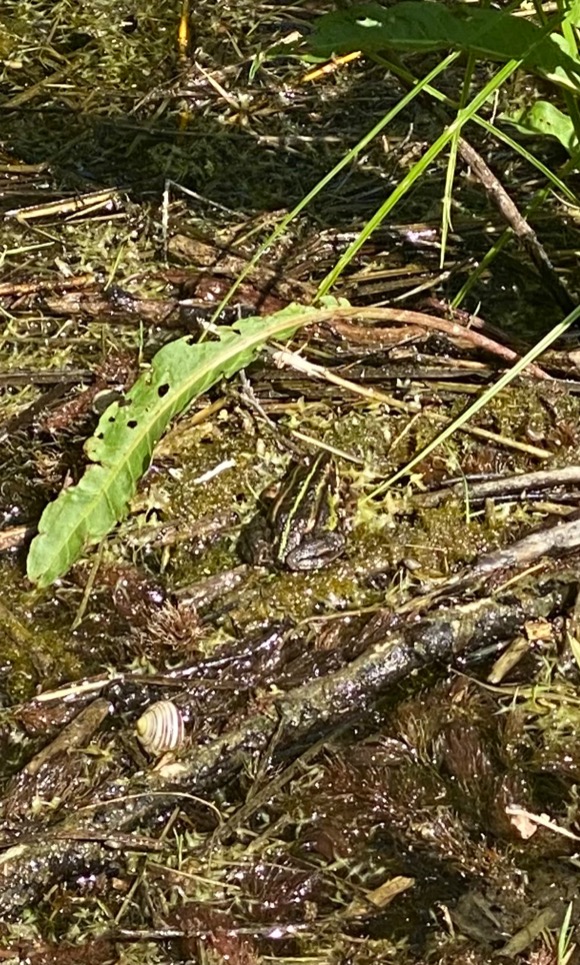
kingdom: Animalia
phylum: Chordata
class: Amphibia
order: Anura
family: Ranidae
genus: Pelophylax
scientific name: Pelophylax lessonae
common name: Grøn frø
